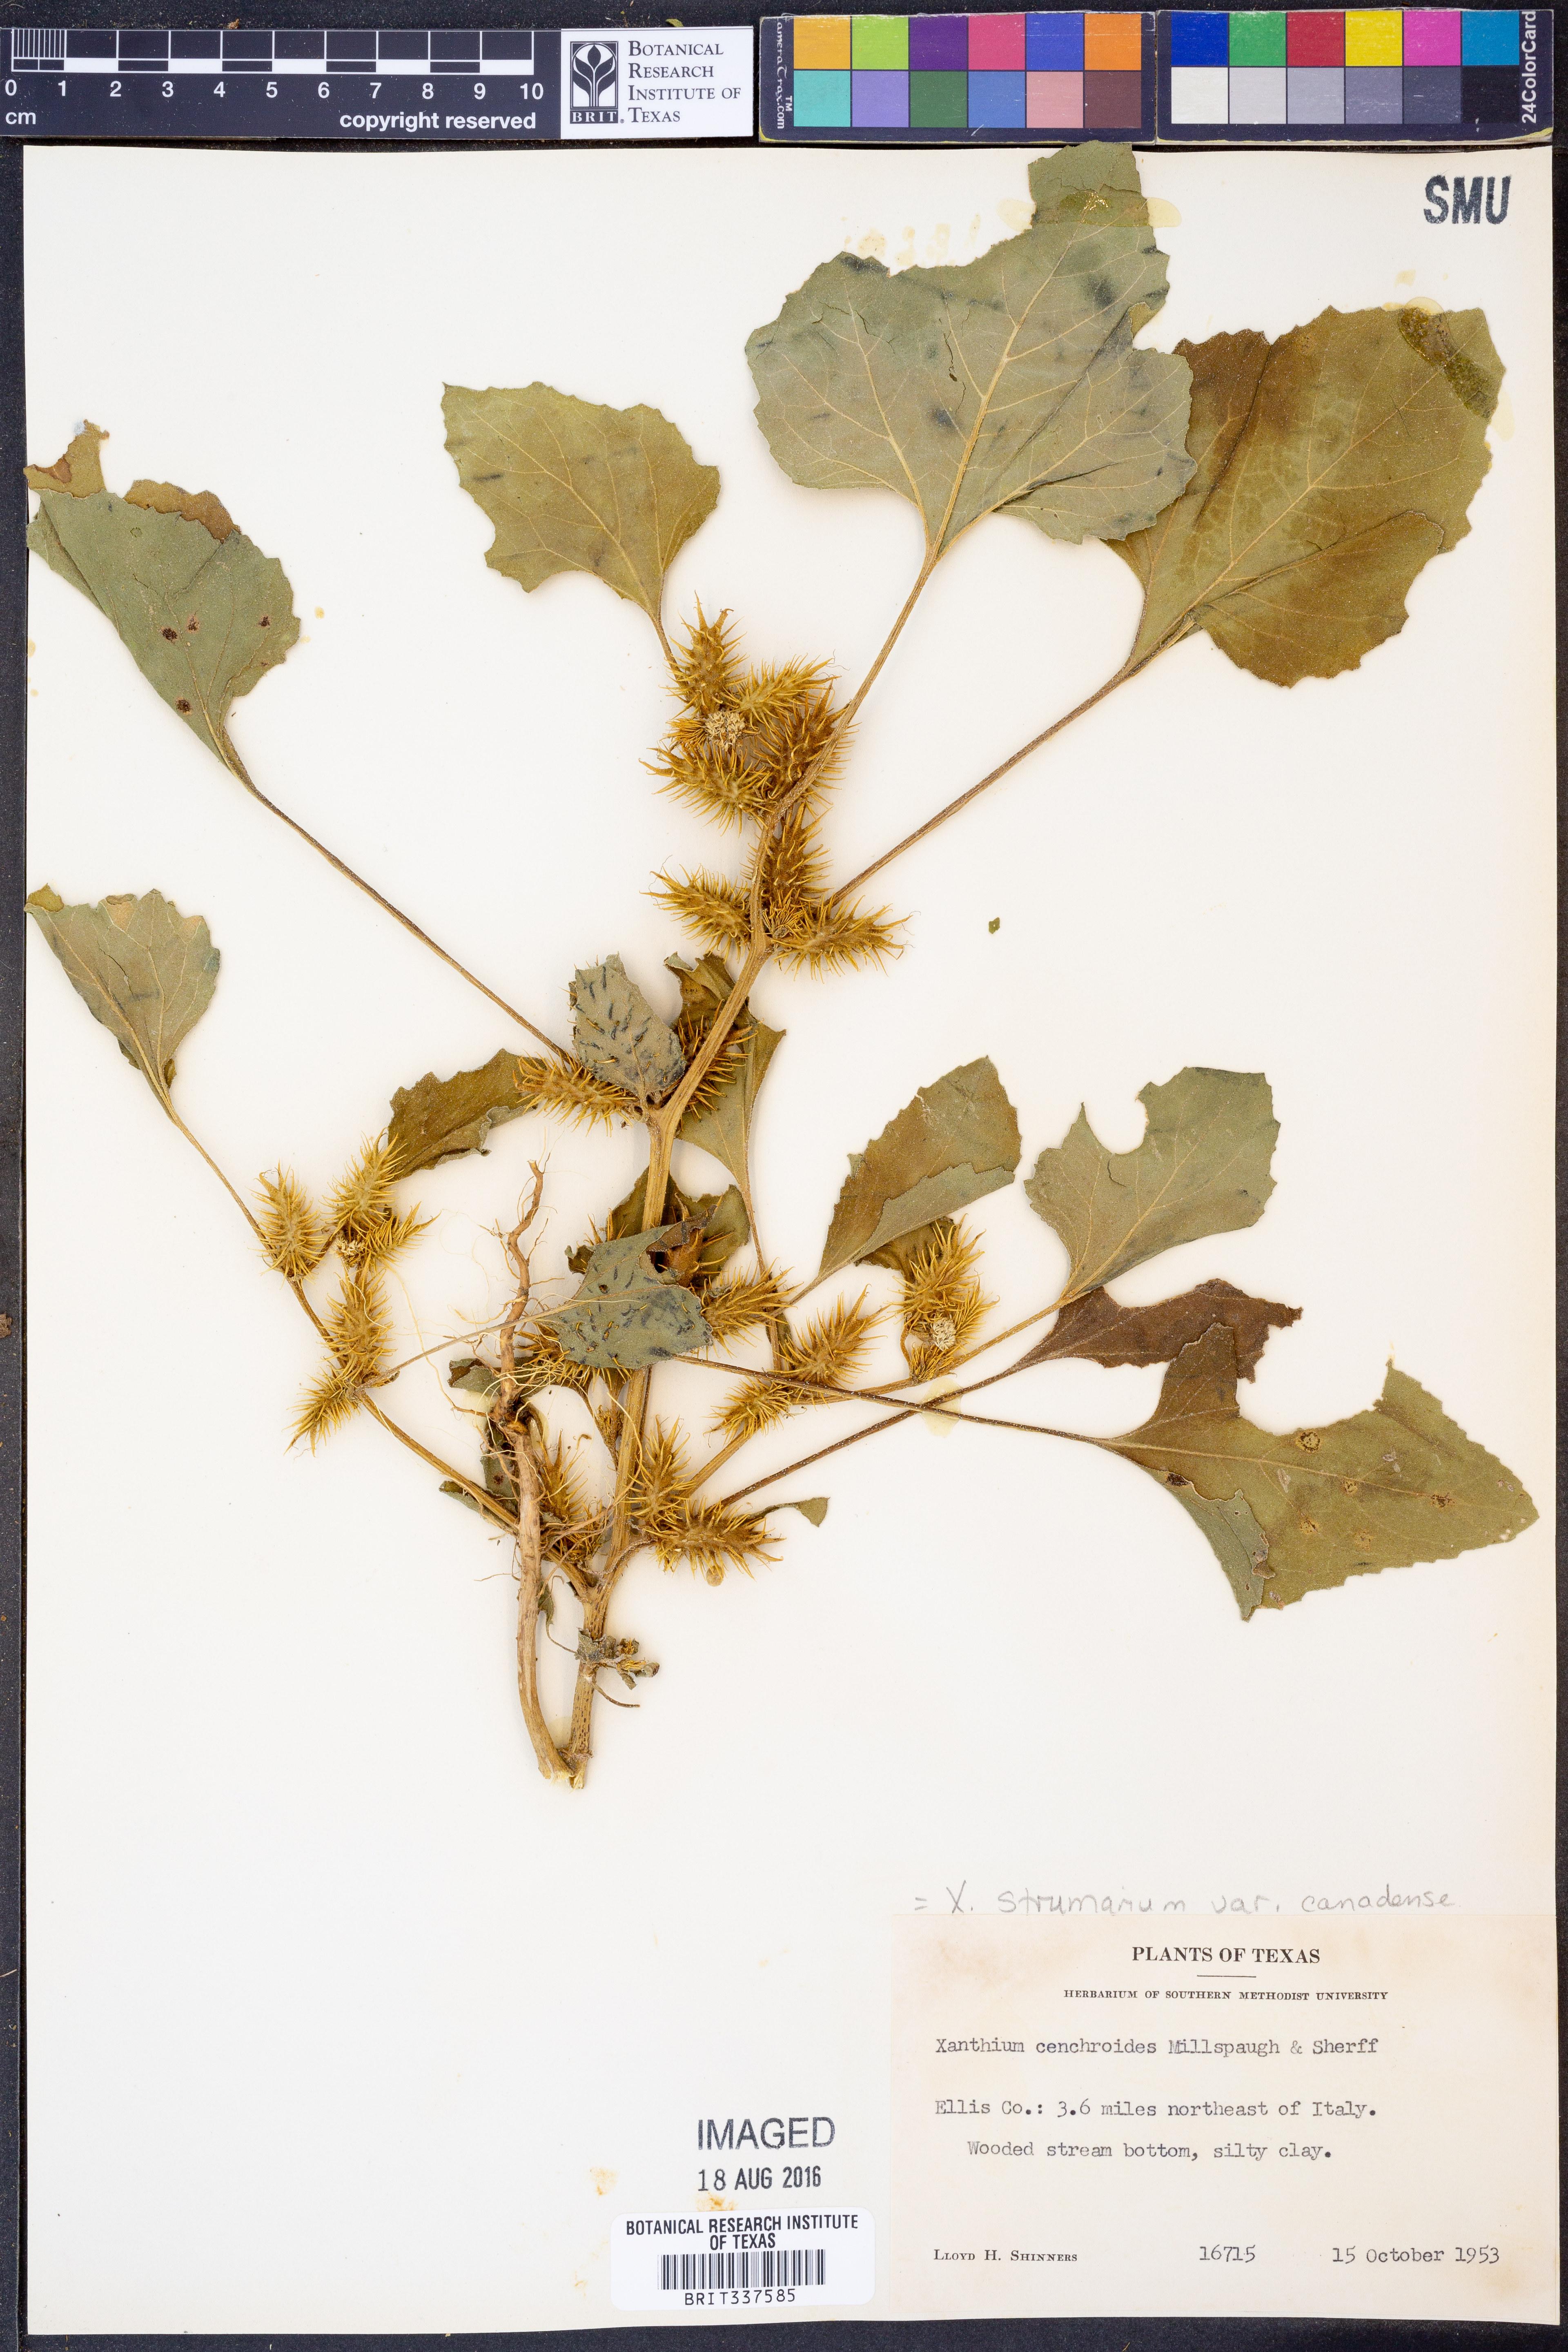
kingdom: Plantae
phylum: Tracheophyta
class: Magnoliopsida
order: Asterales
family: Asteraceae
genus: Xanthium
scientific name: Xanthium orientale
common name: Californian burr
